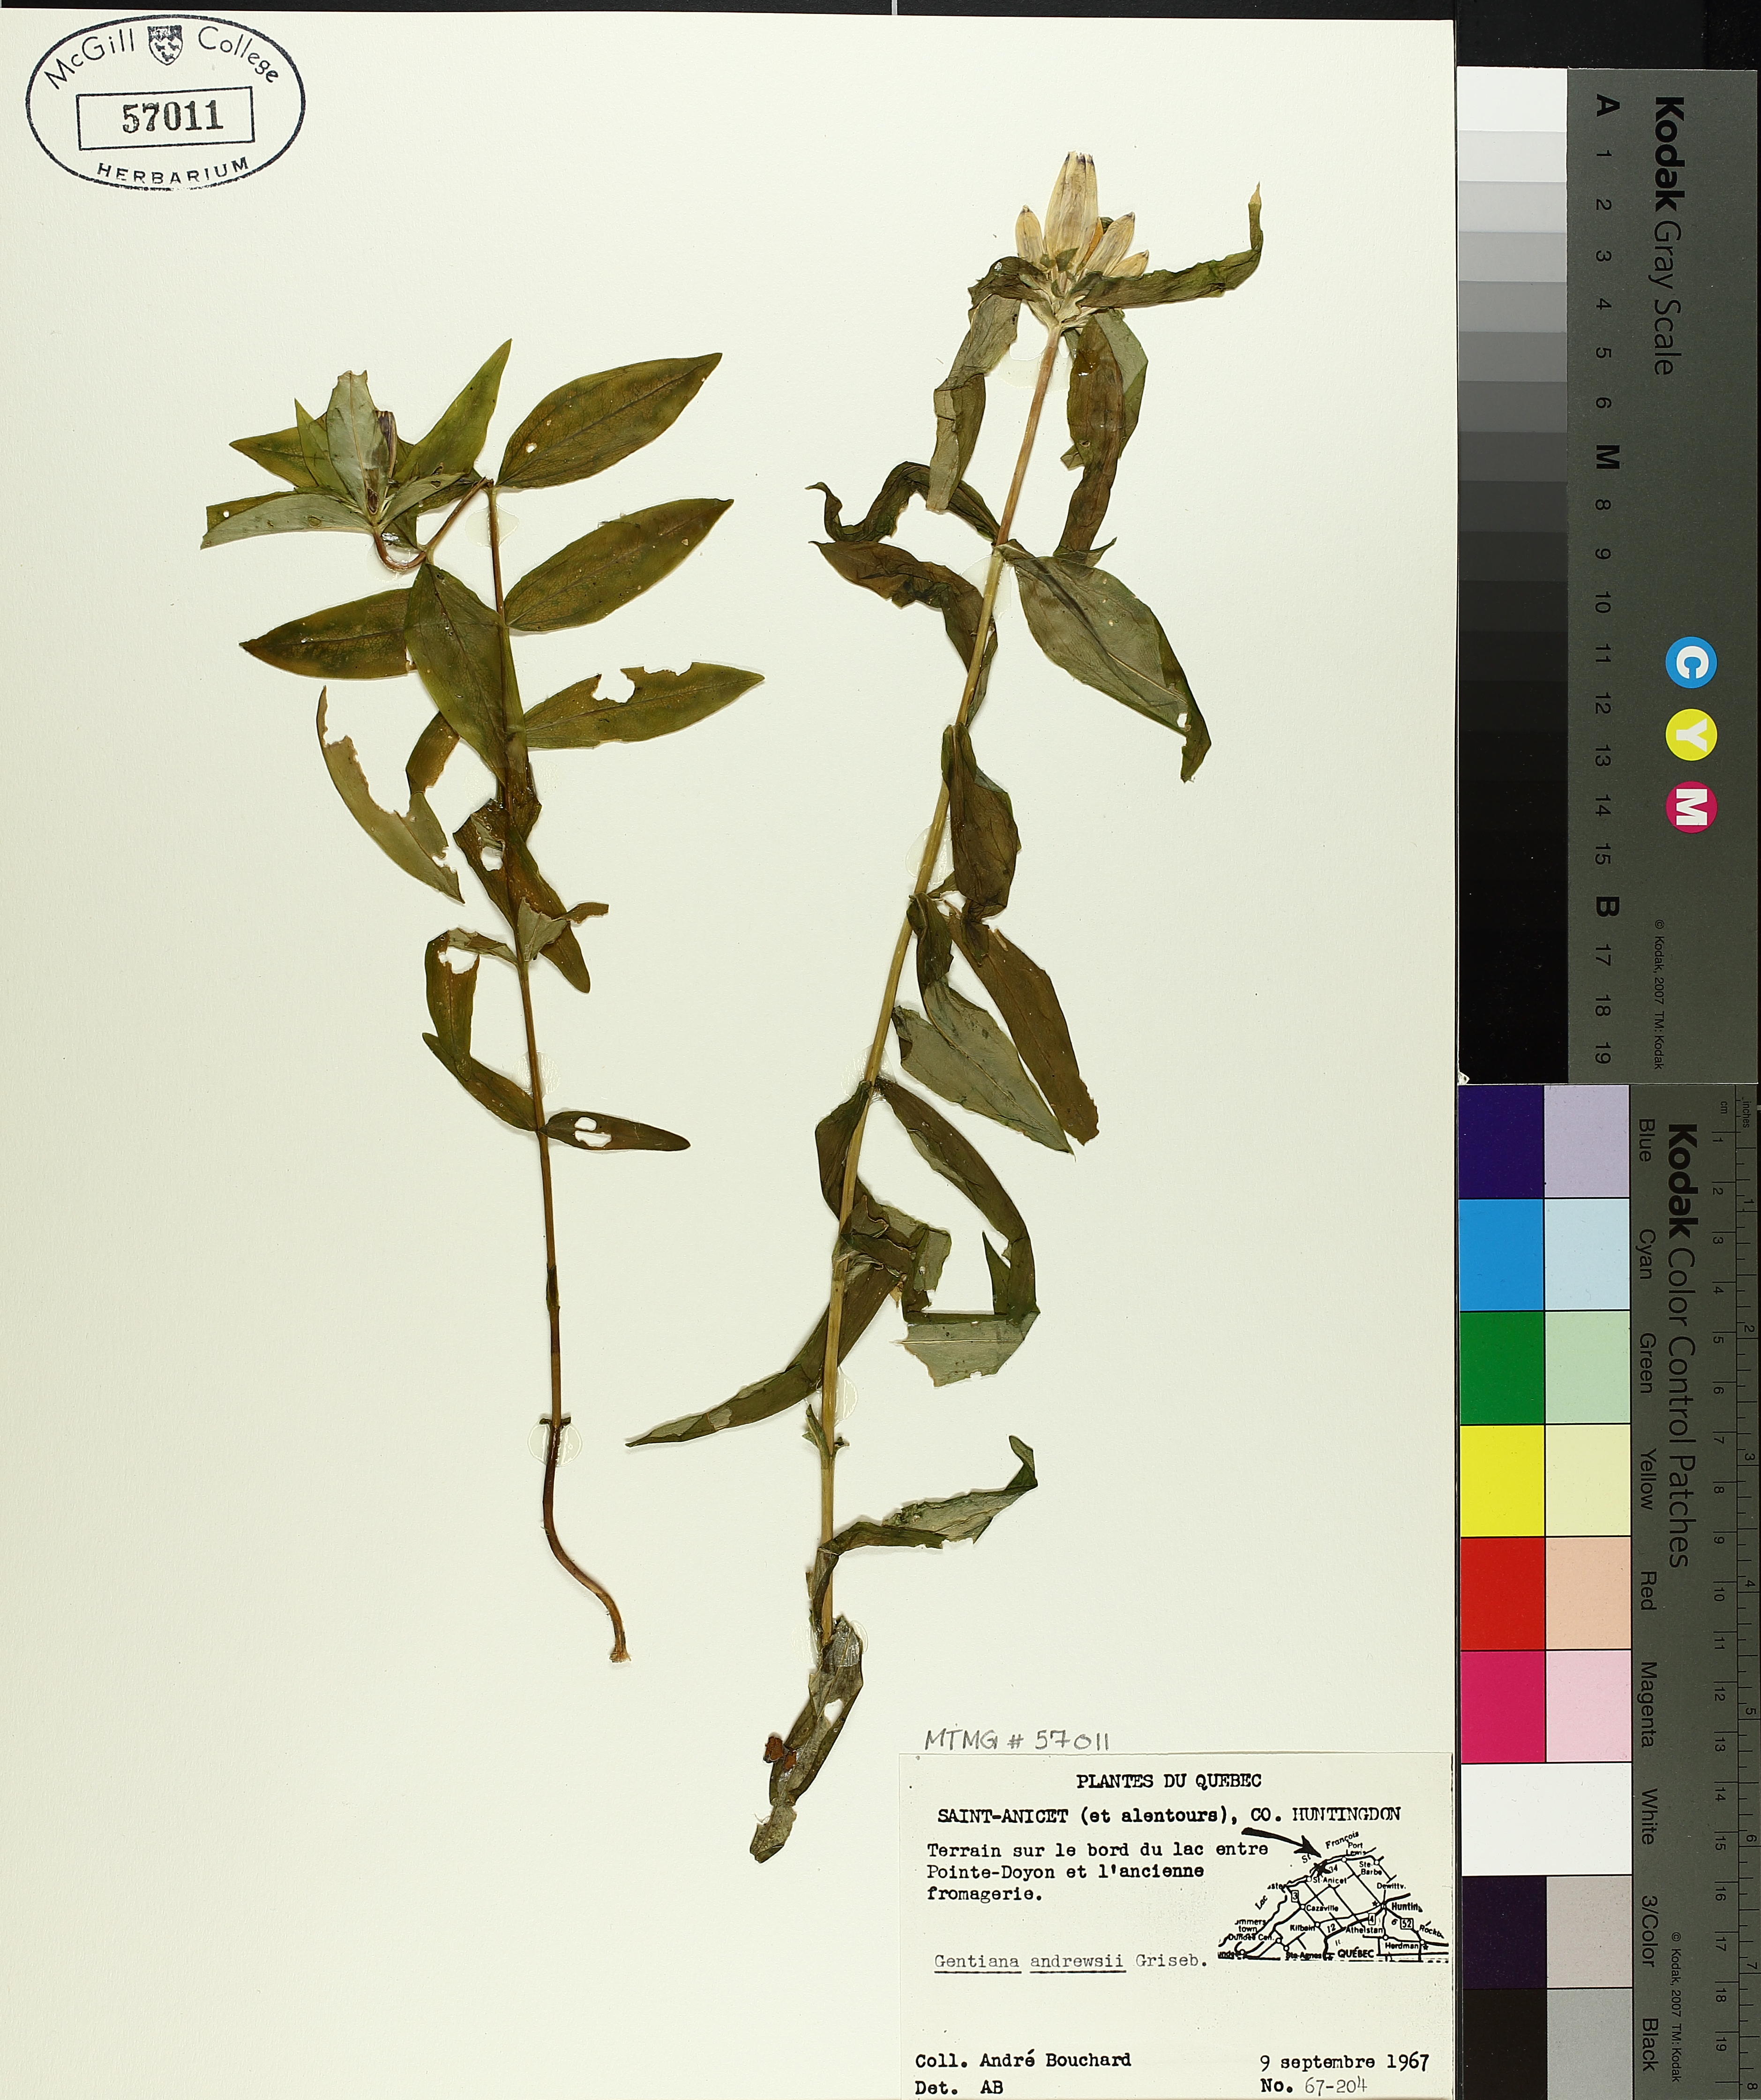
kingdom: Plantae
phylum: Tracheophyta
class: Magnoliopsida
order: Gentianales
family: Gentianaceae
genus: Gentiana
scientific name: Gentiana andrewsii
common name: Bottle gentian
